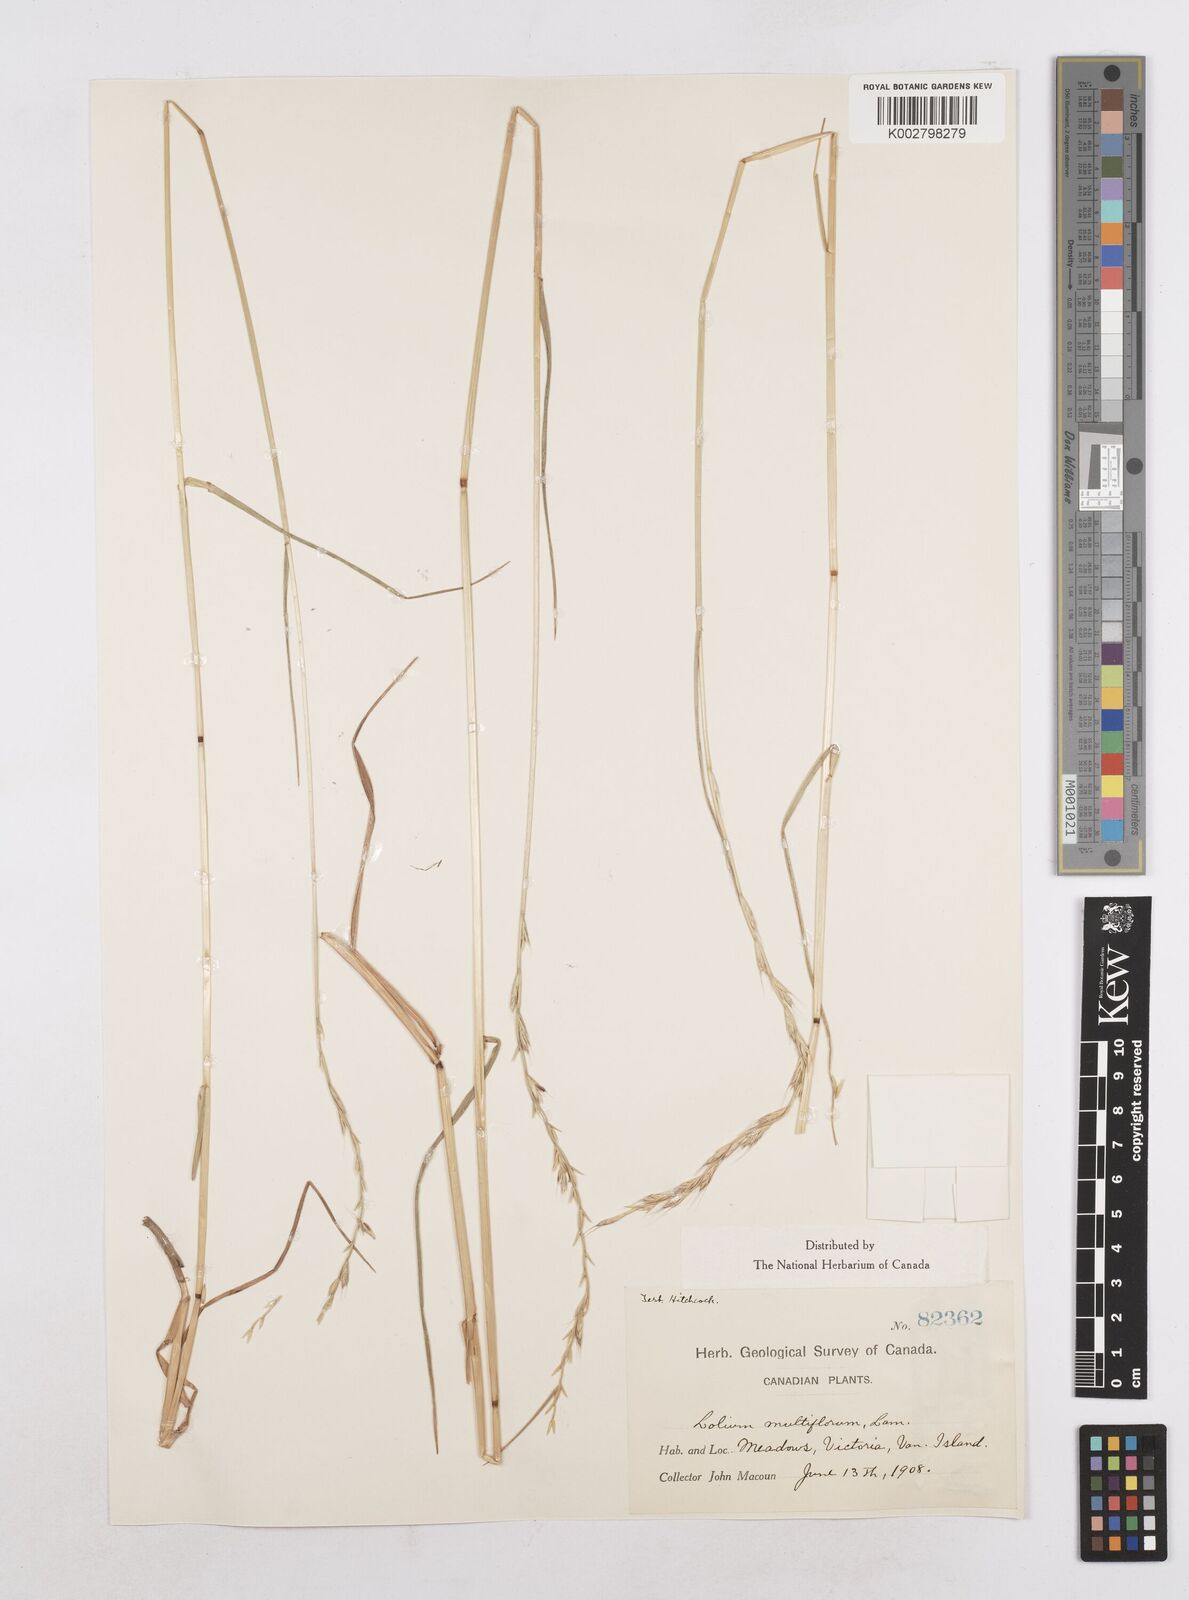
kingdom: Plantae
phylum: Tracheophyta
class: Liliopsida
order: Poales
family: Poaceae
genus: Lolium
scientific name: Lolium multiflorum
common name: Annual ryegrass
